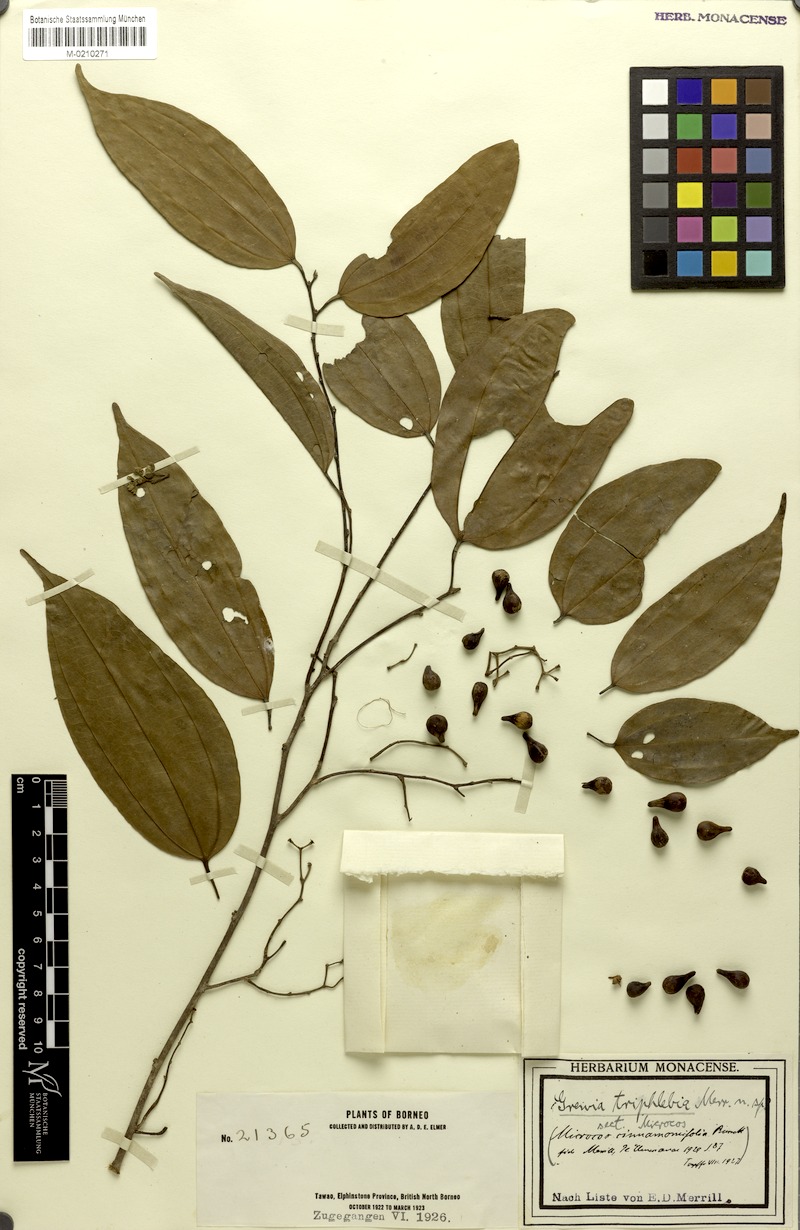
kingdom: Plantae
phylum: Tracheophyta
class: Magnoliopsida
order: Malvales
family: Malvaceae
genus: Microcos
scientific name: Microcos cinnamomifolia
